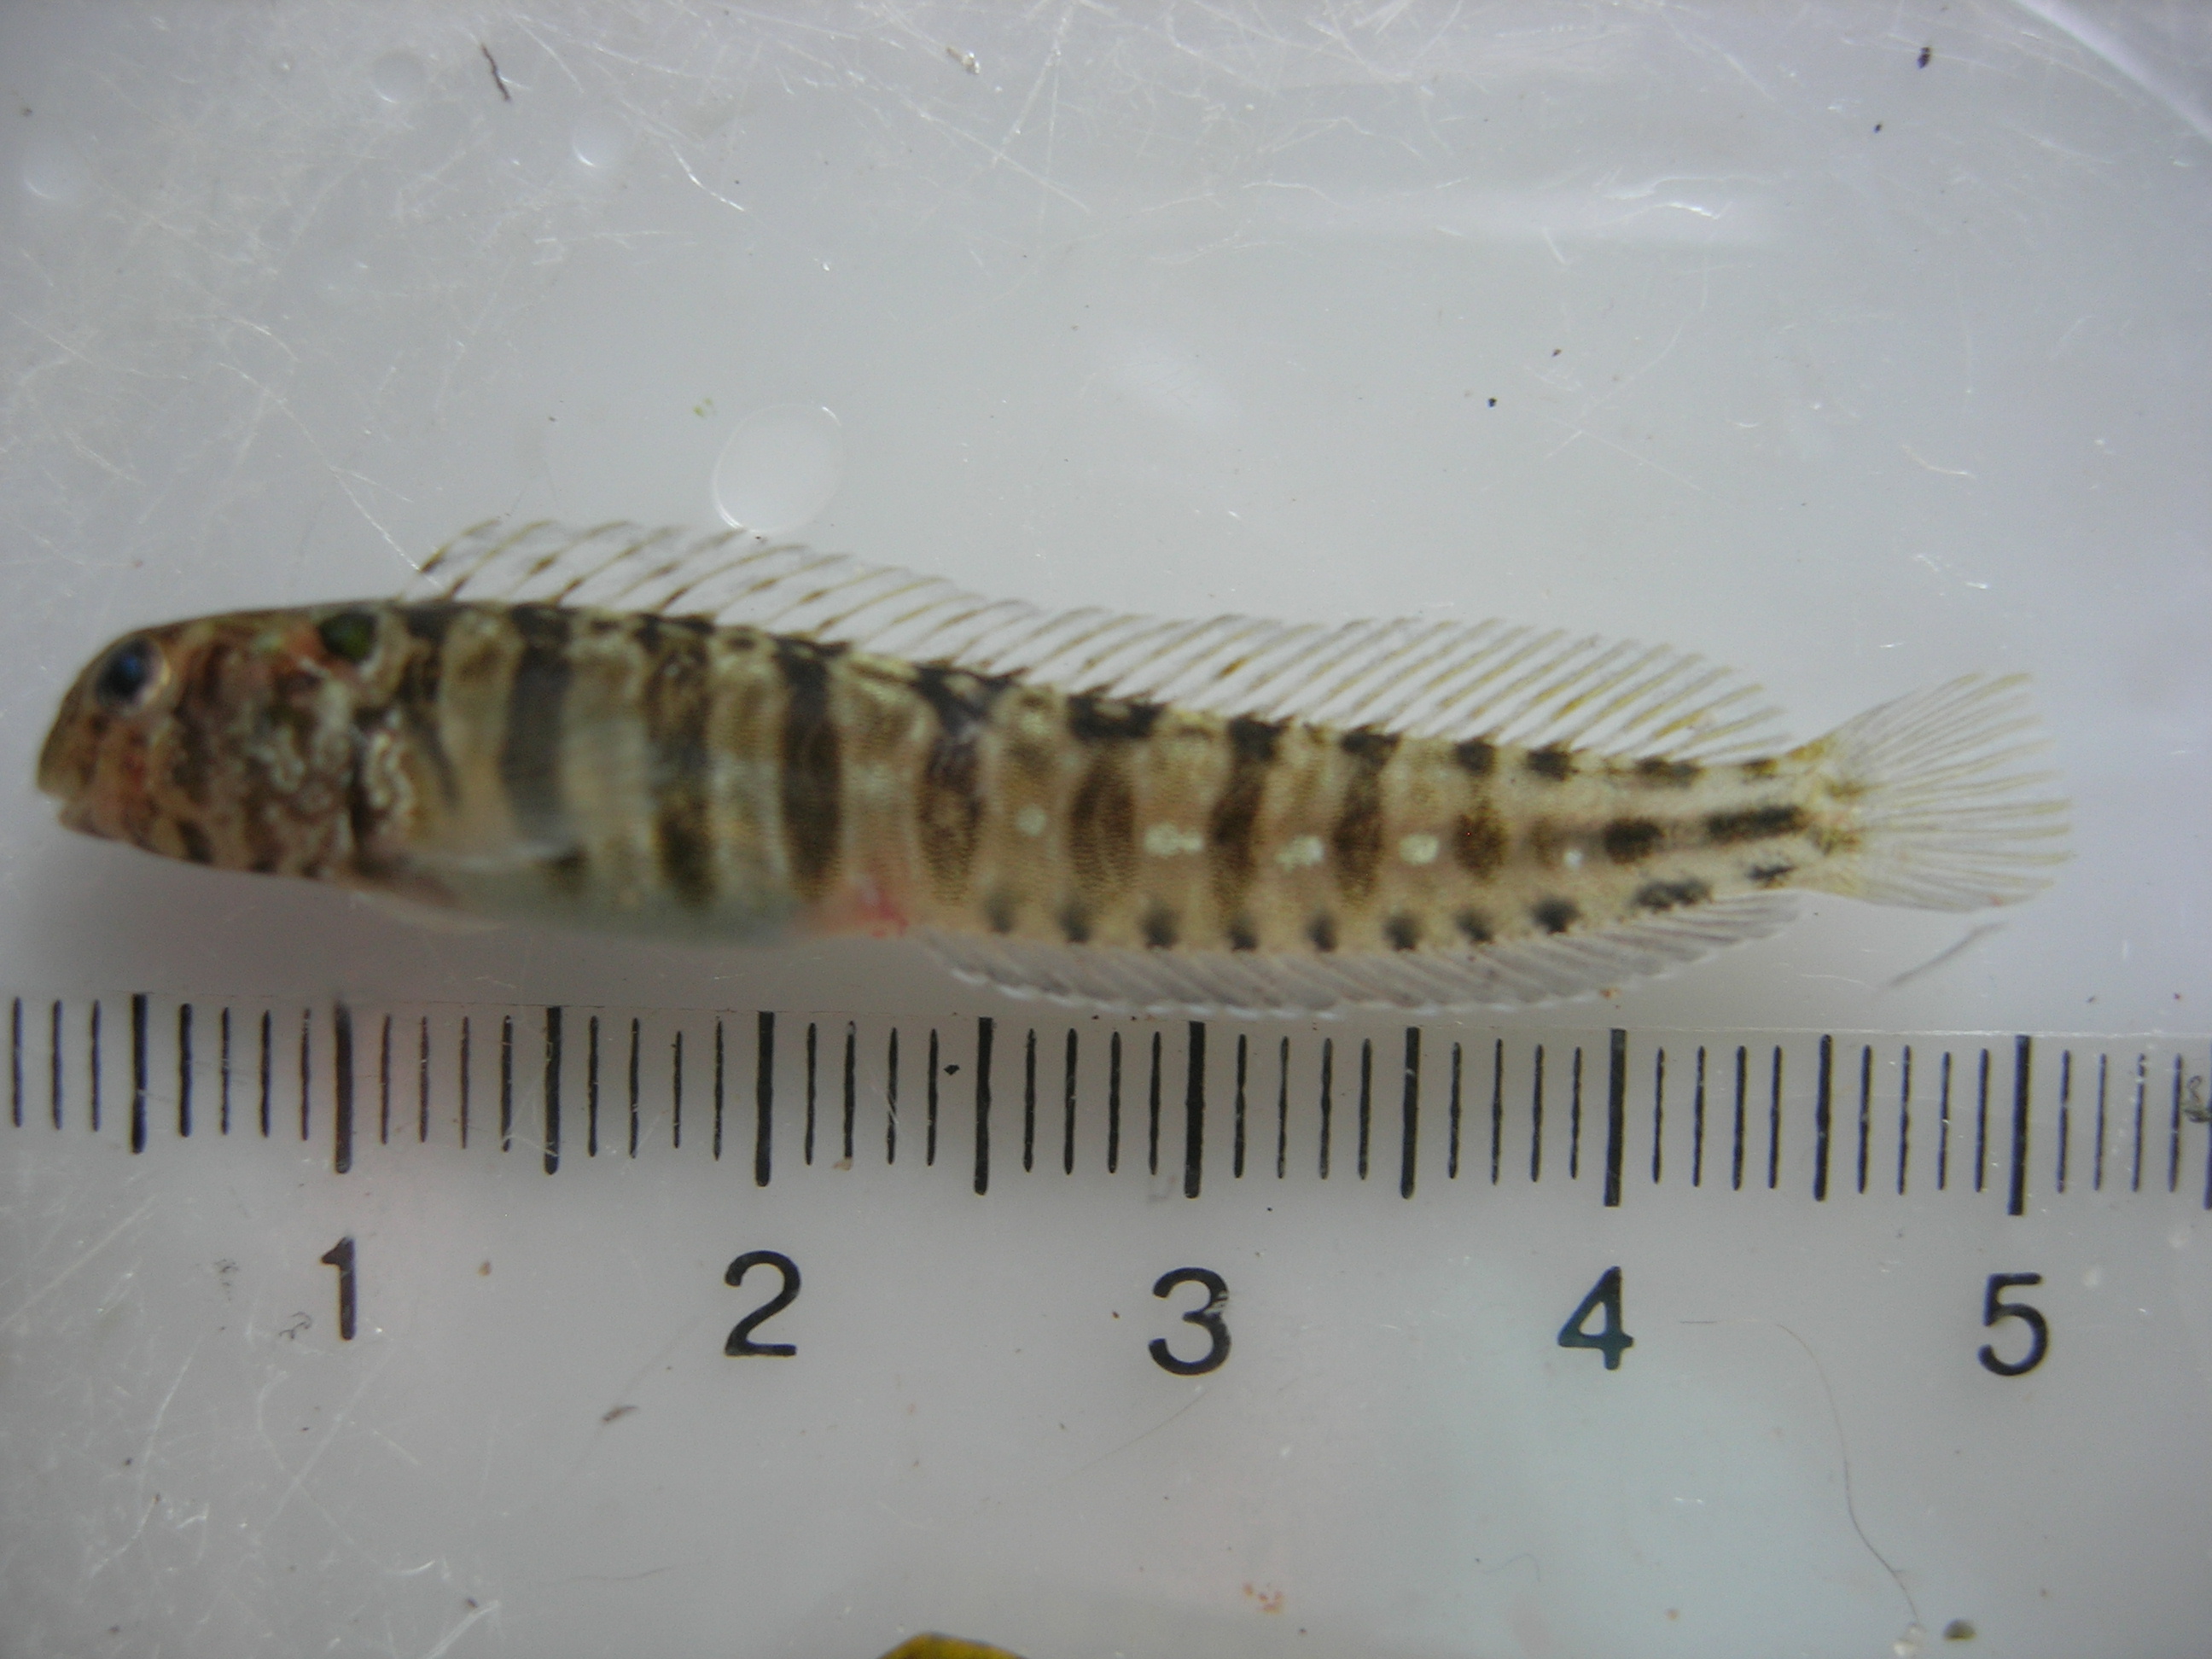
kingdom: Animalia
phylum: Chordata
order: Perciformes
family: Blenniidae
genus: Omobranchus
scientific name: Omobranchus banditus
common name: Bandit blenny
